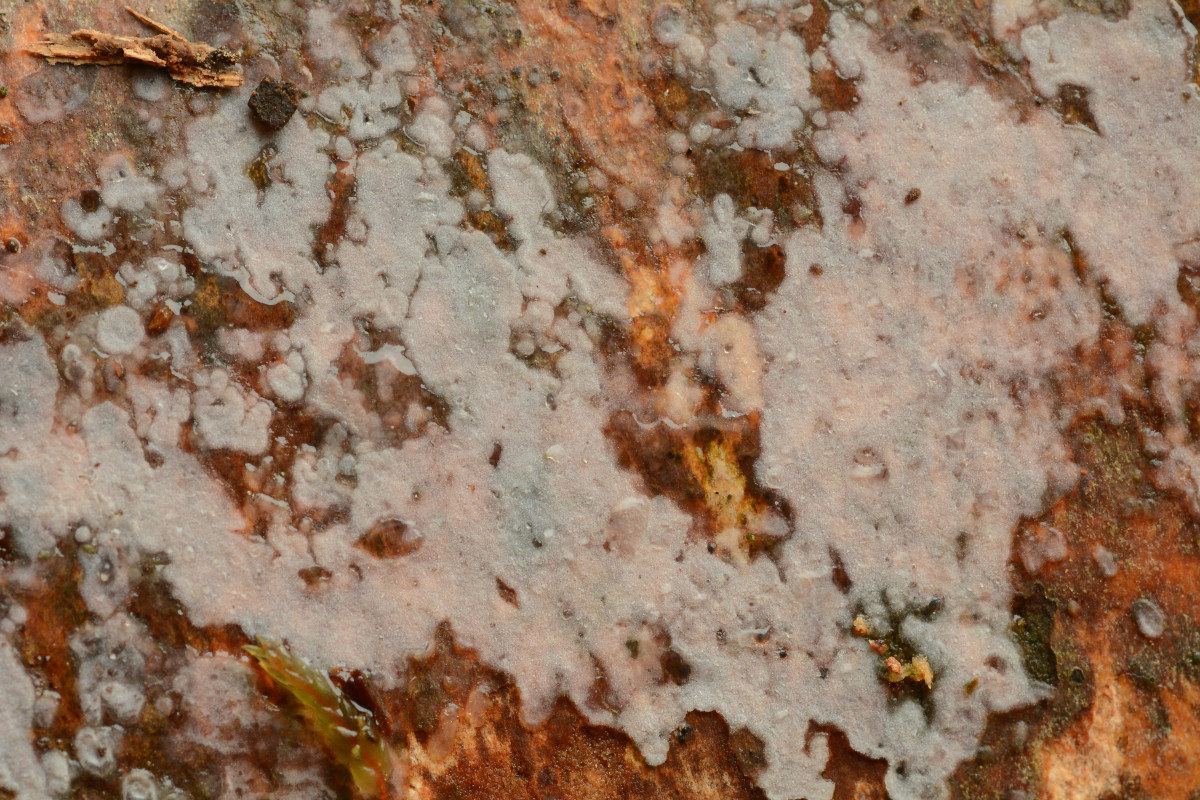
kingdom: Fungi
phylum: Basidiomycota
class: Agaricomycetes
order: Sebacinales
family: Sebacinaceae
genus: Sebacina
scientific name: Sebacina grisea
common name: blågrå bævrehinde
